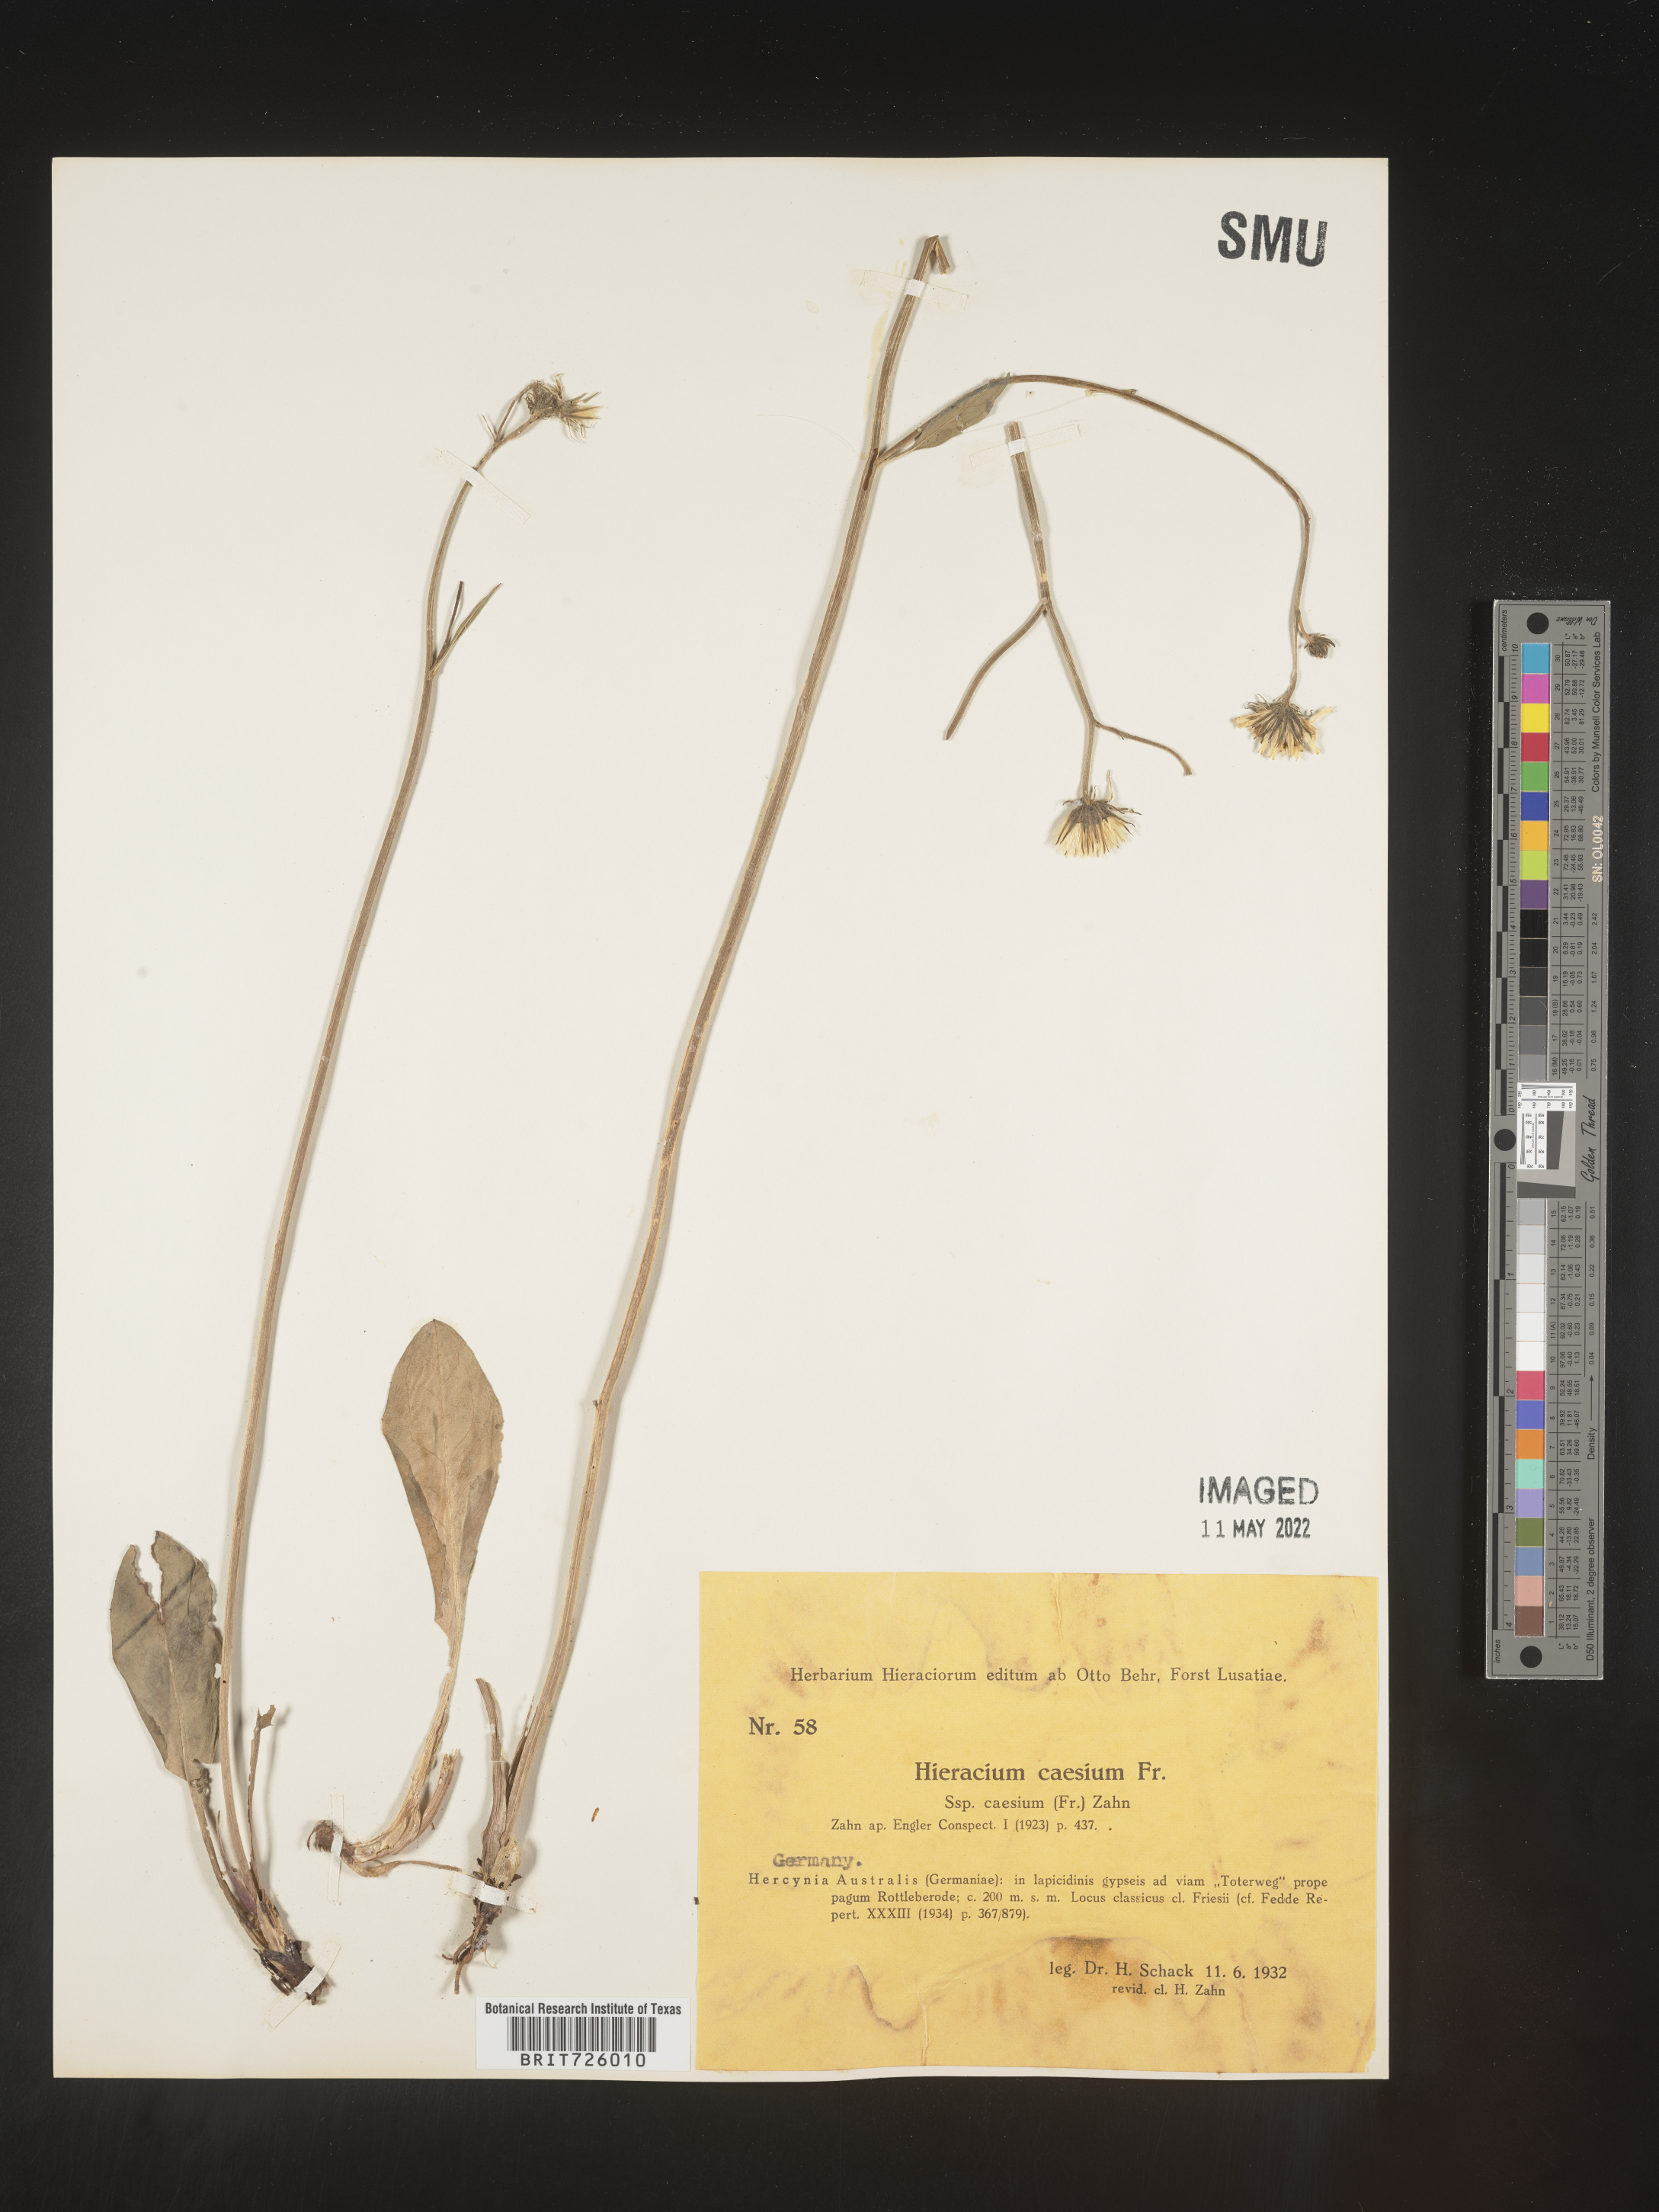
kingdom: Plantae
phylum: Tracheophyta
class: Magnoliopsida
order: Asterales
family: Asteraceae
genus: Hieracium
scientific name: Hieracium
